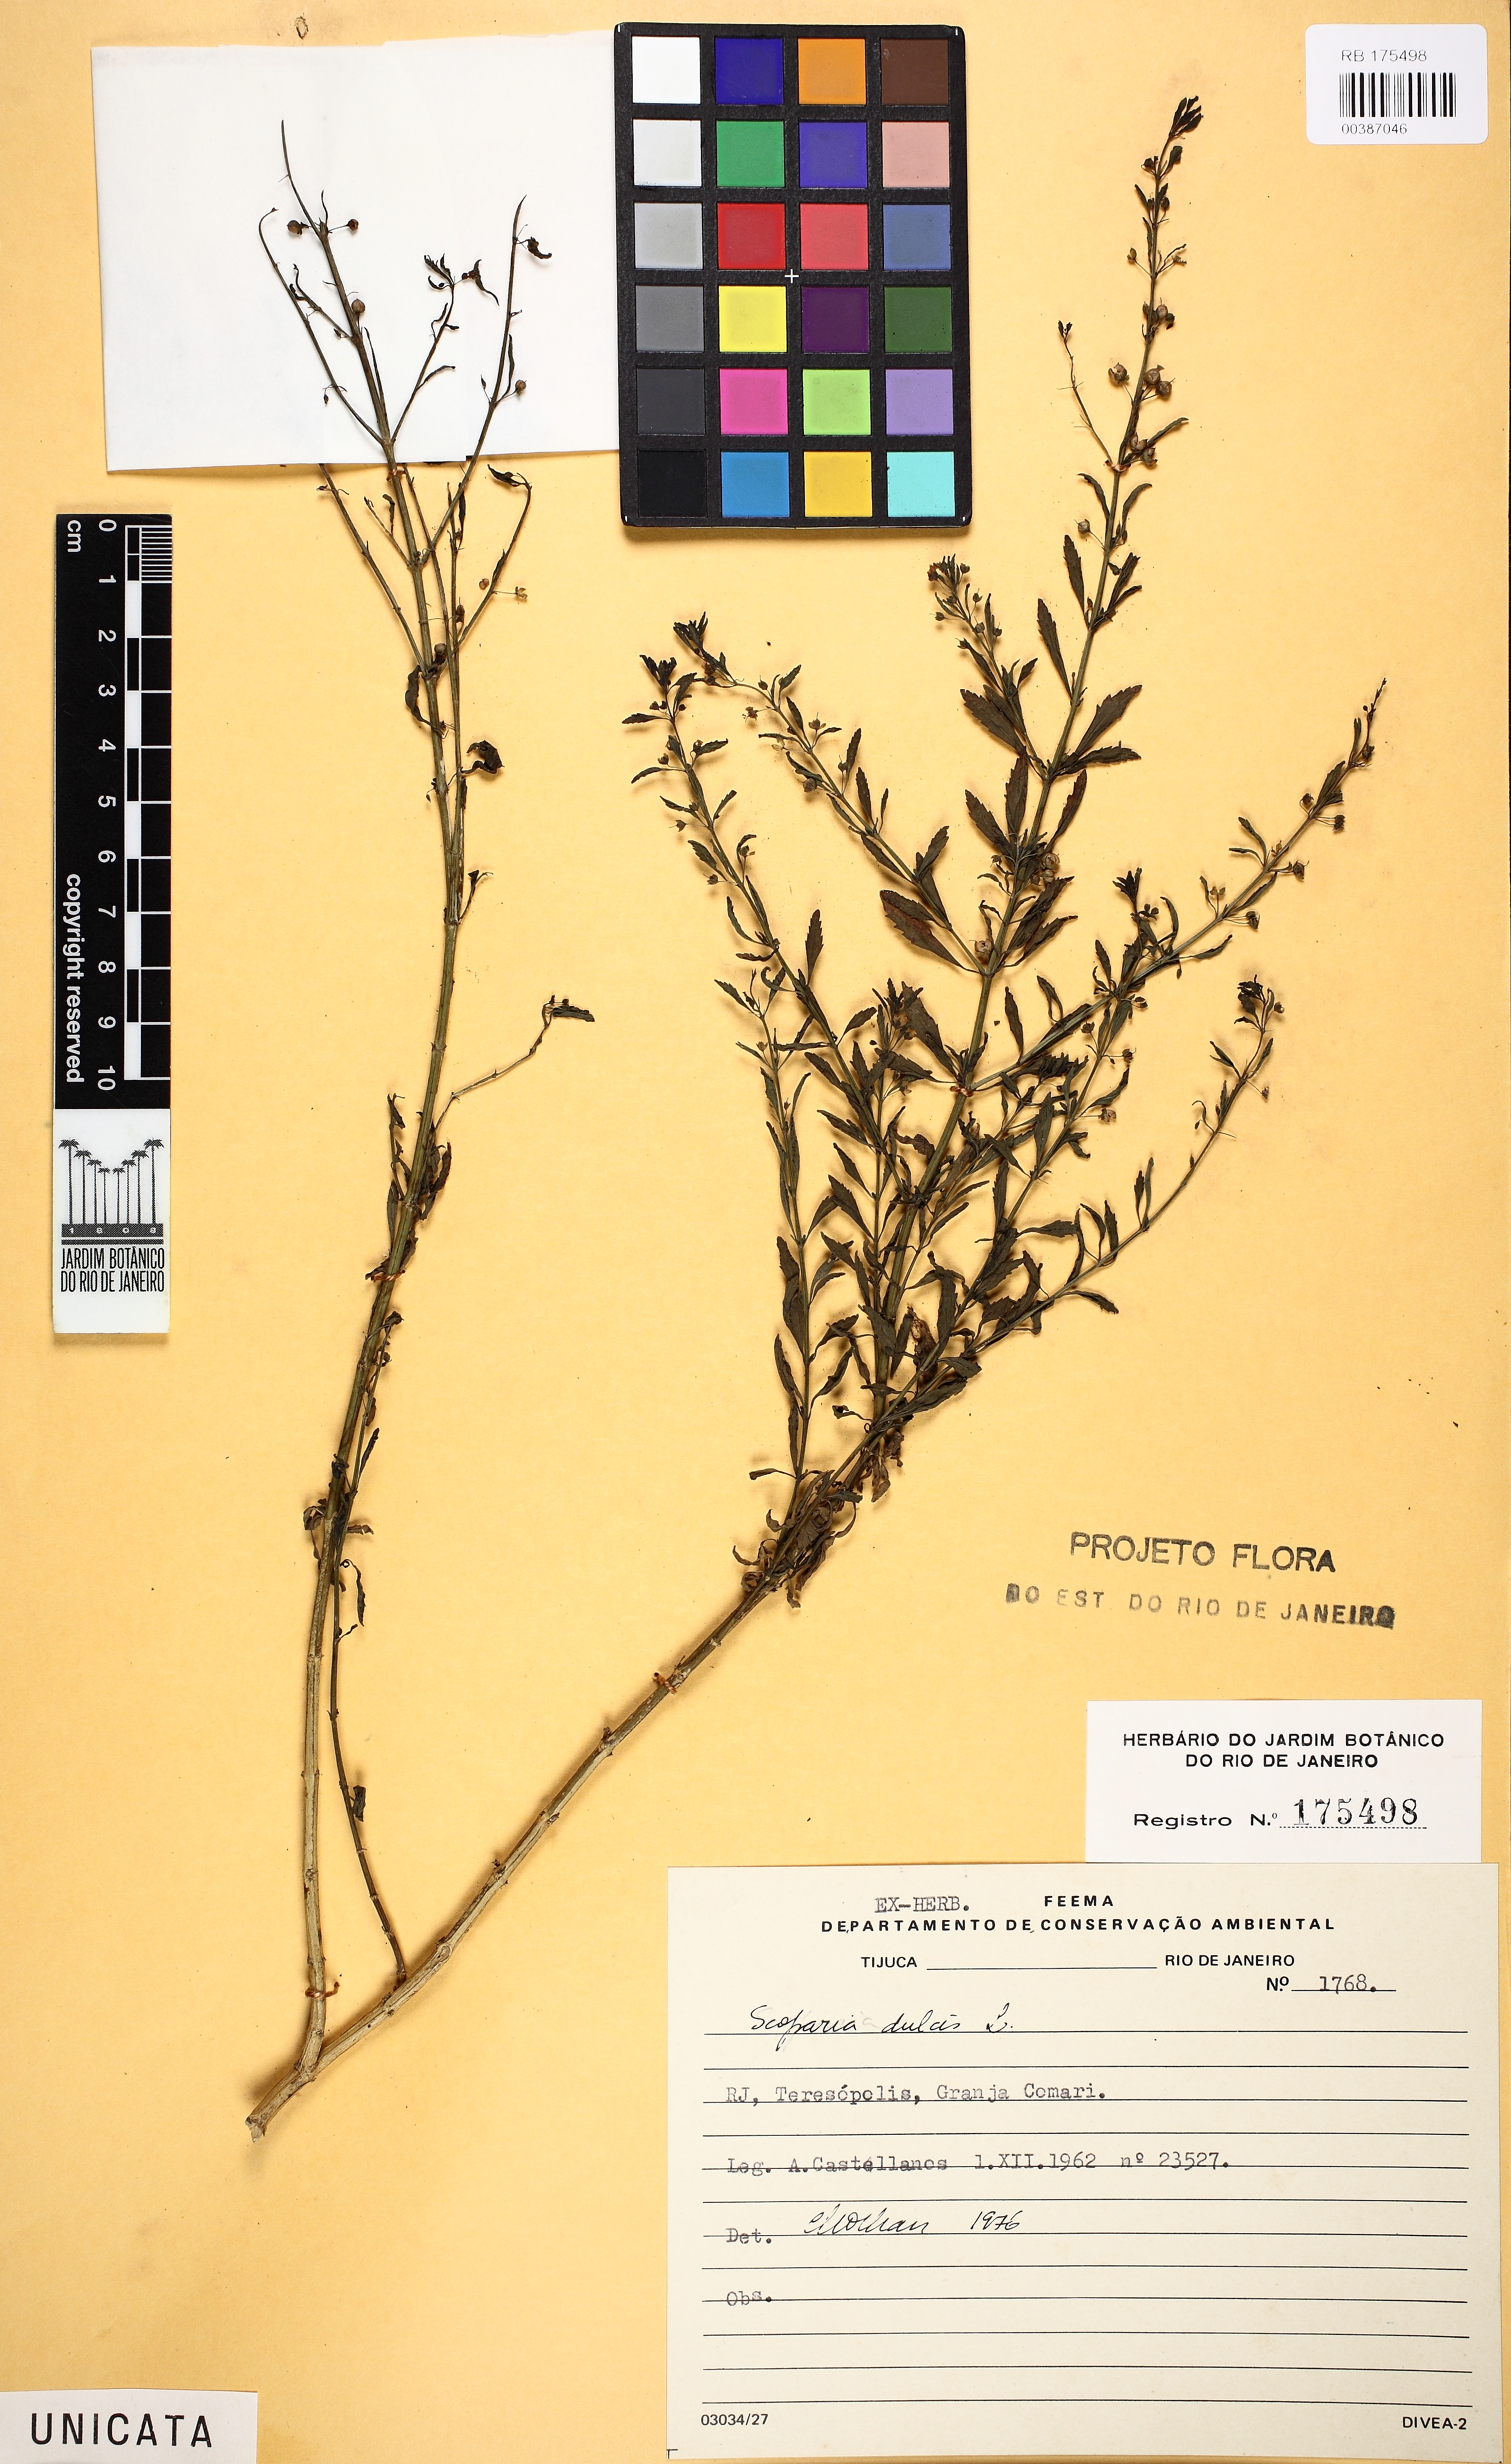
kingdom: Plantae
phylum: Tracheophyta
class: Magnoliopsida
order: Lamiales
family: Plantaginaceae
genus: Scoparia
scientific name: Scoparia dulcis
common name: Scoparia-weed
